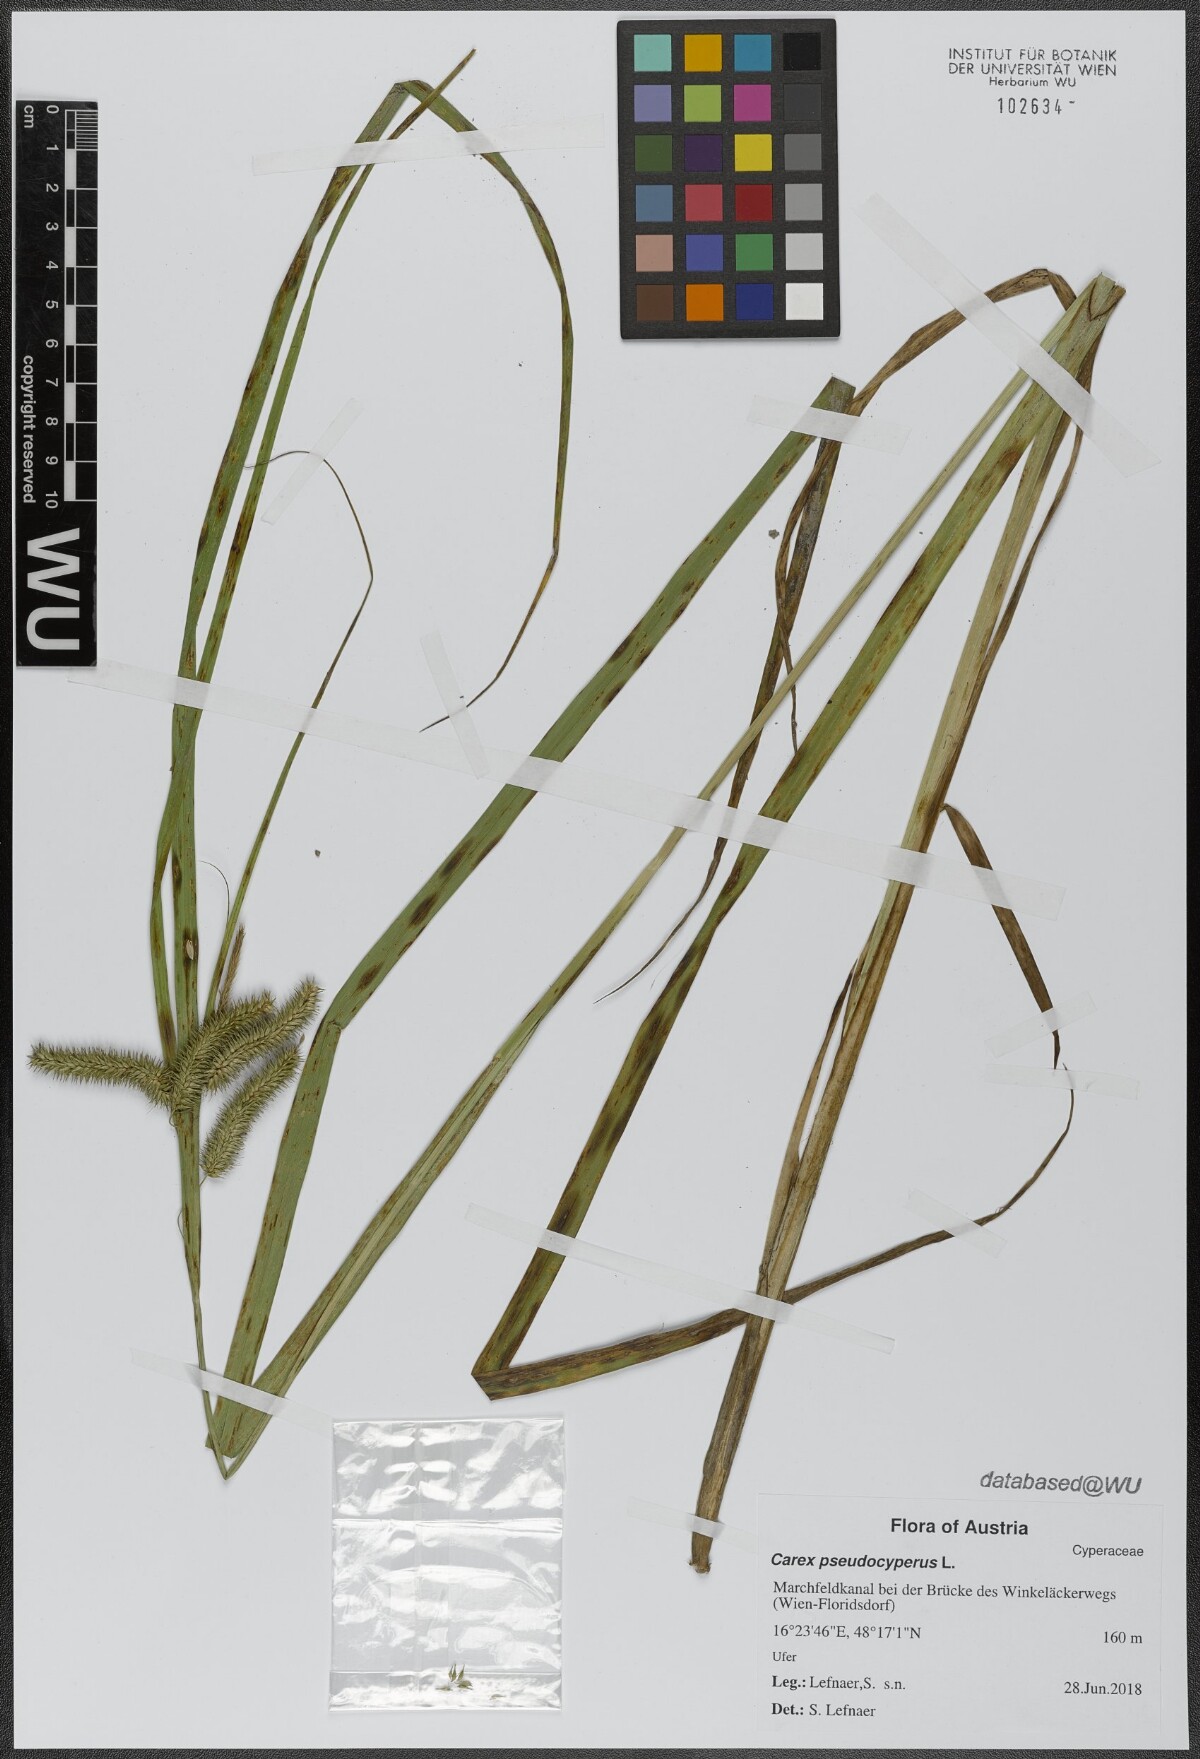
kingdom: Plantae
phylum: Tracheophyta
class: Liliopsida
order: Poales
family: Cyperaceae
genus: Carex
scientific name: Carex pseudocyperus
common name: Cyperus sedge
